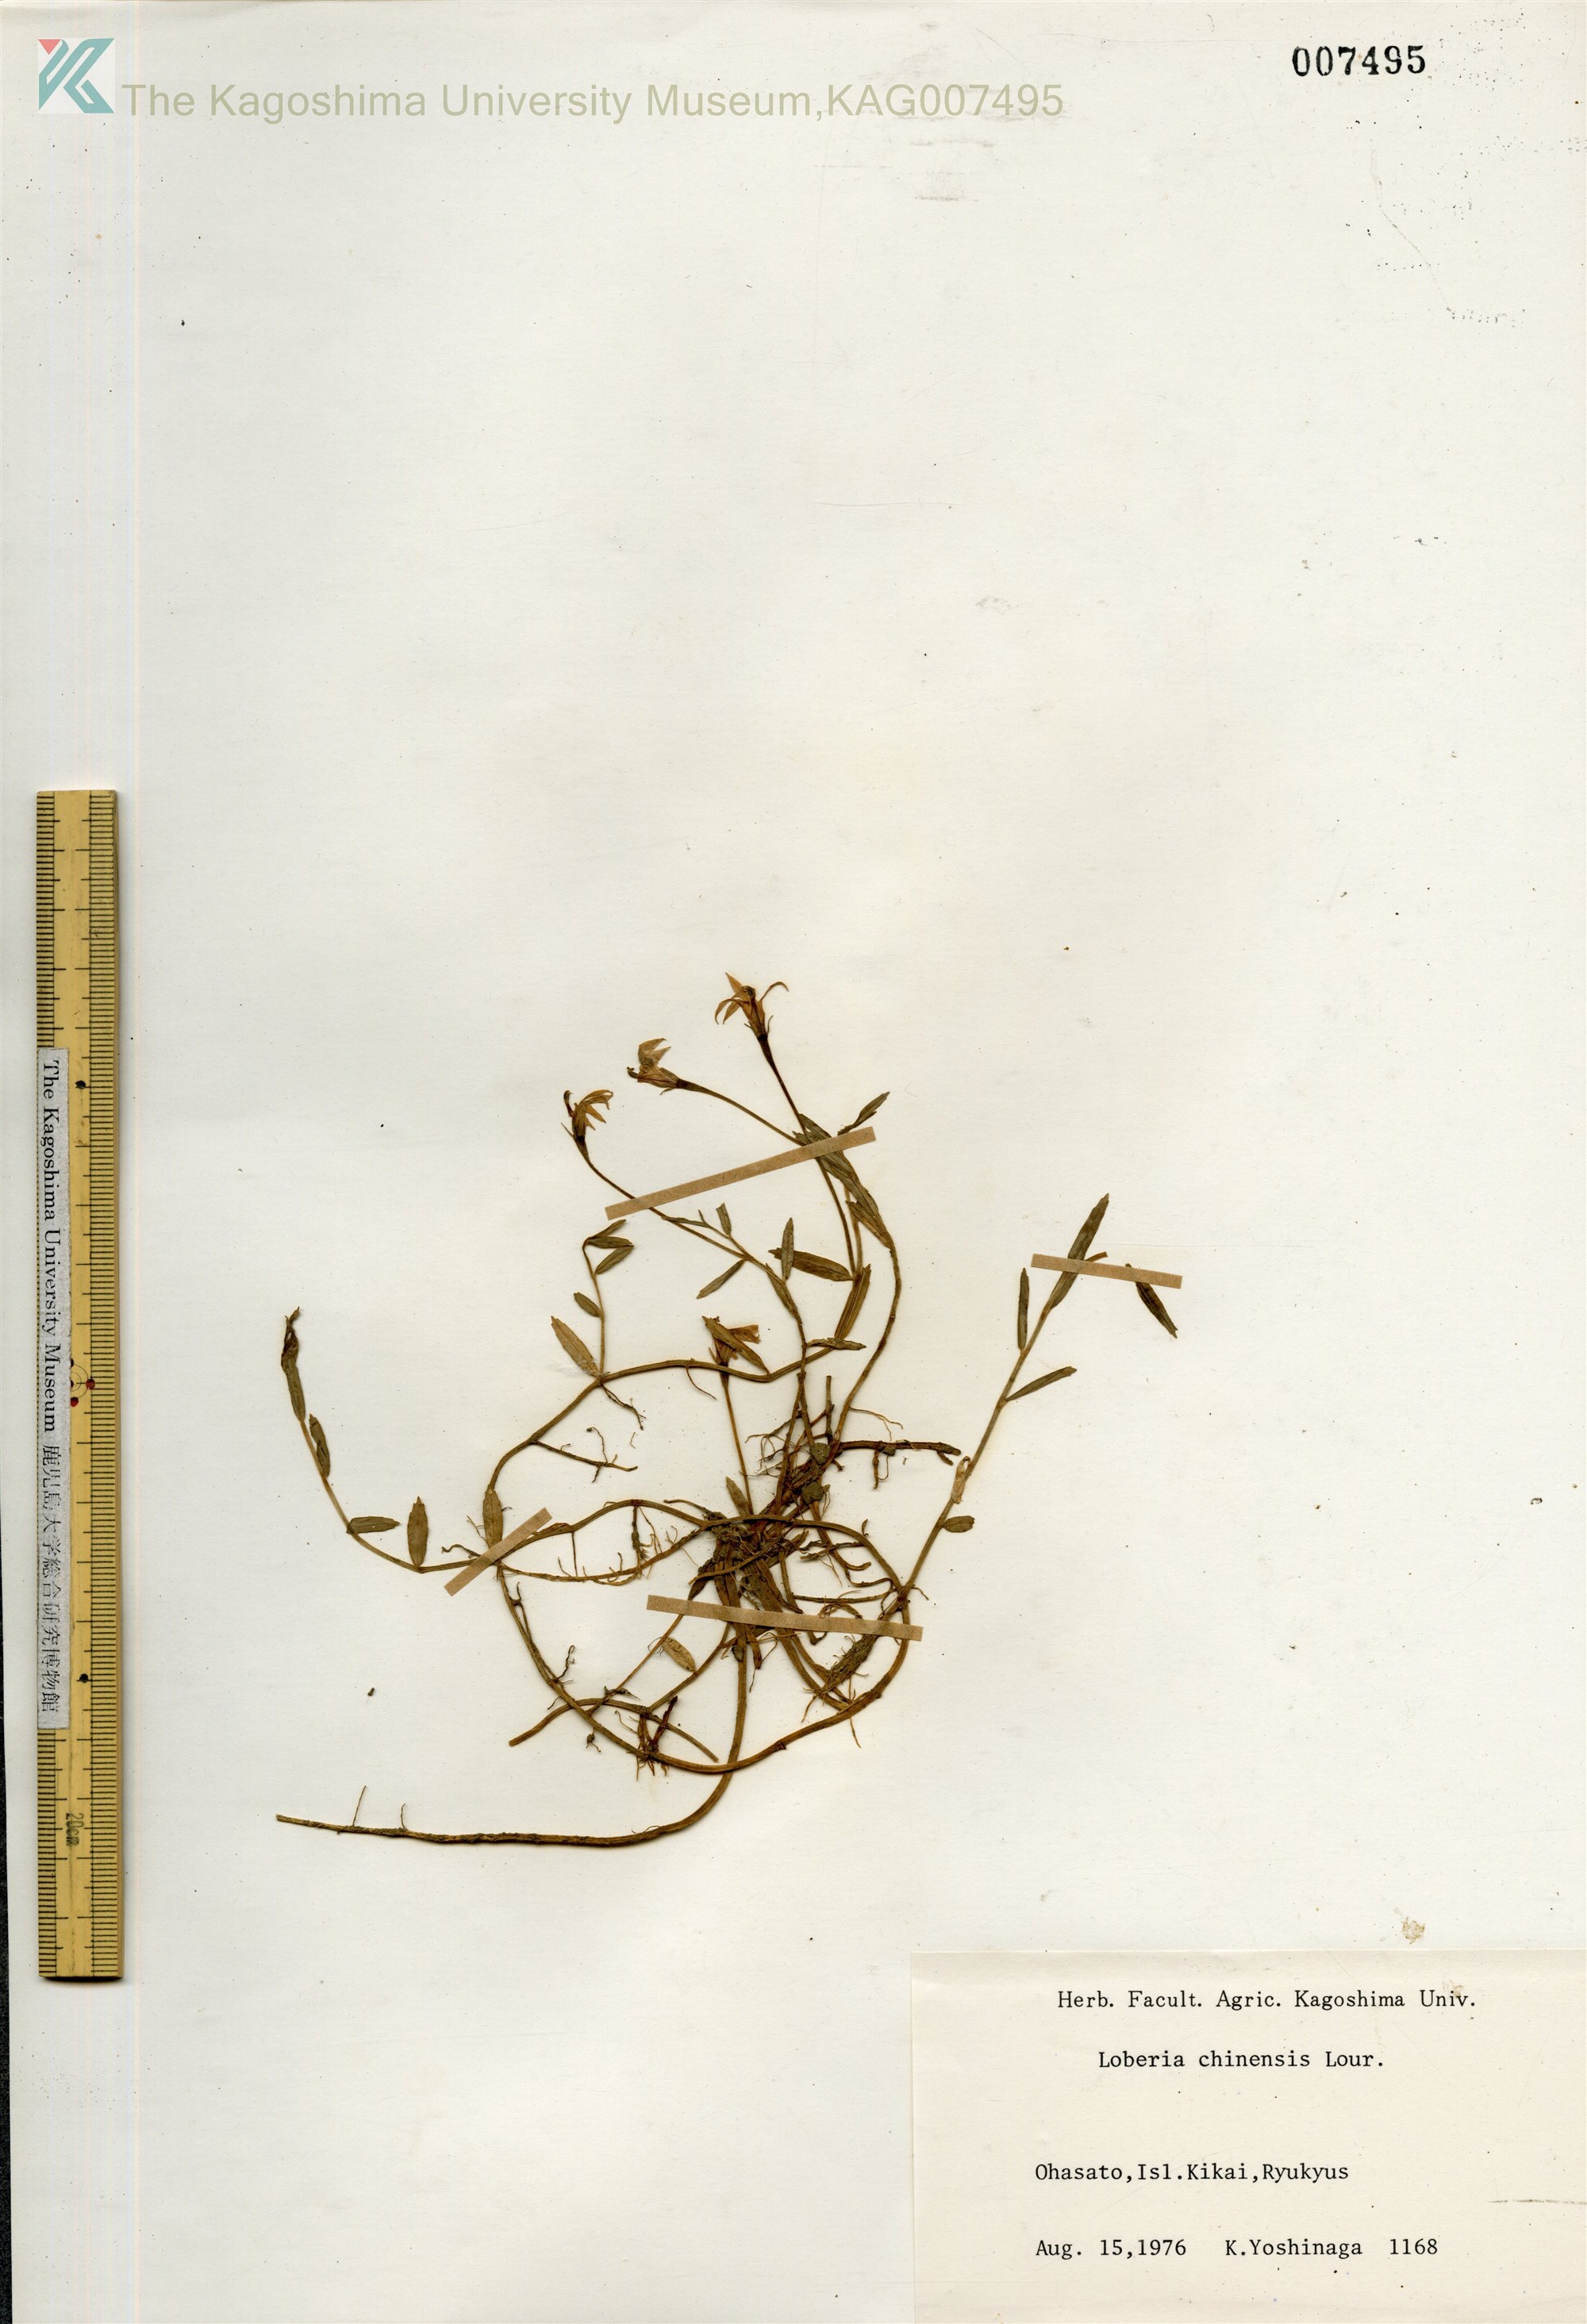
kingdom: Plantae
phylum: Tracheophyta
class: Magnoliopsida
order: Asterales
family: Campanulaceae
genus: Lobelia
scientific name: Lobelia chinensis
